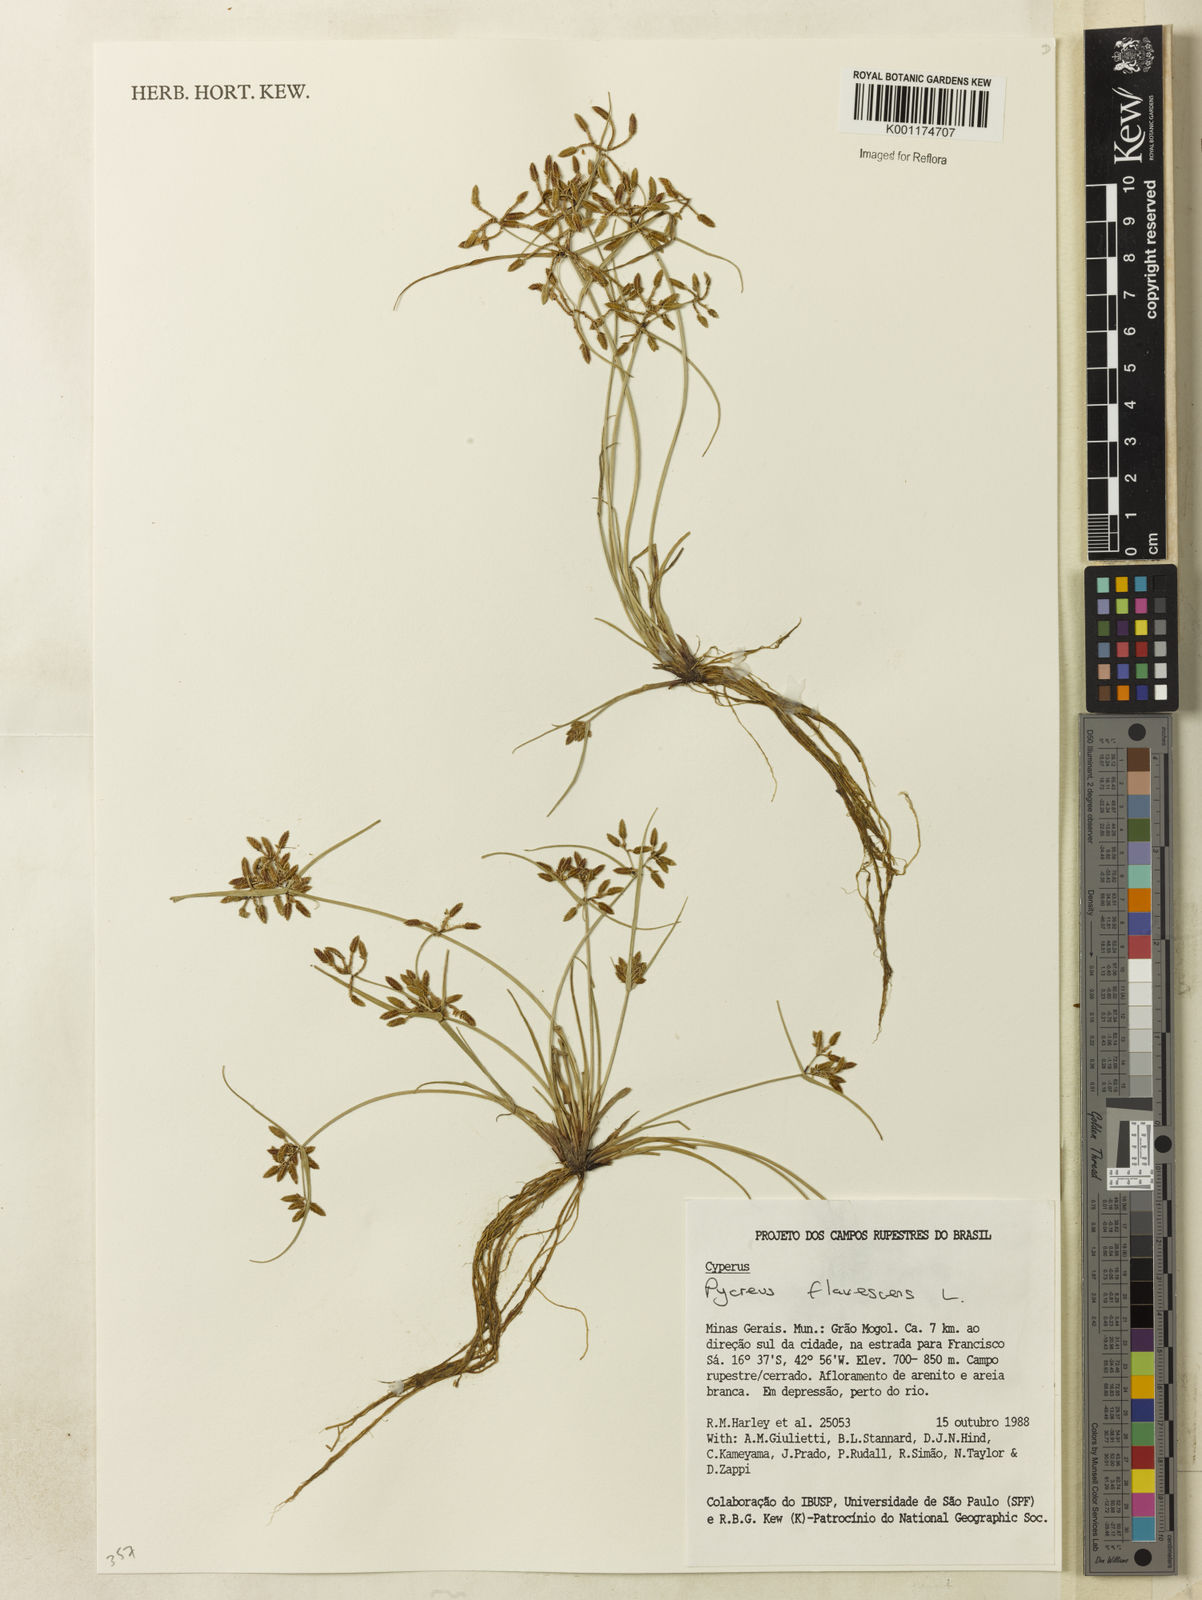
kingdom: Plantae
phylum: Tracheophyta
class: Liliopsida
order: Poales
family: Cyperaceae
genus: Cyperus
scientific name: Cyperus flavescens
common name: Yellow galingale
